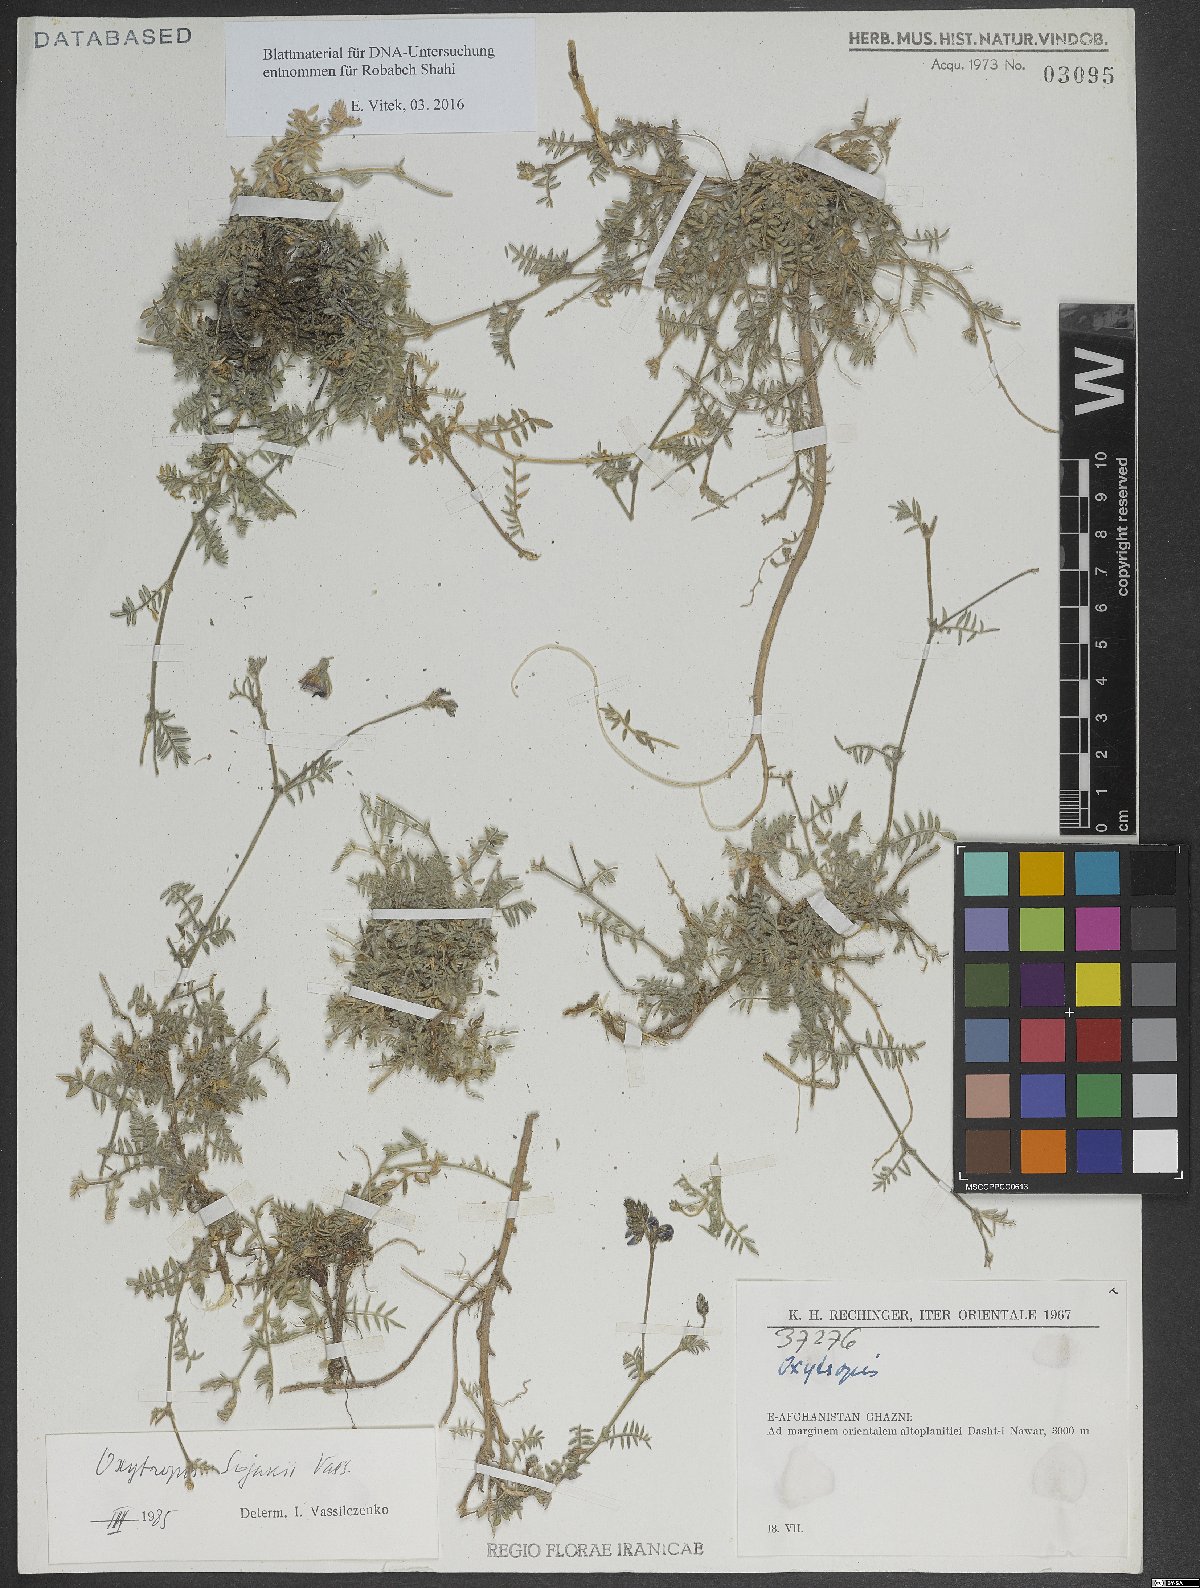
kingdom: Plantae
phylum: Tracheophyta
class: Magnoliopsida
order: Fabales
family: Fabaceae
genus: Oxytropis
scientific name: Oxytropis sojakii
